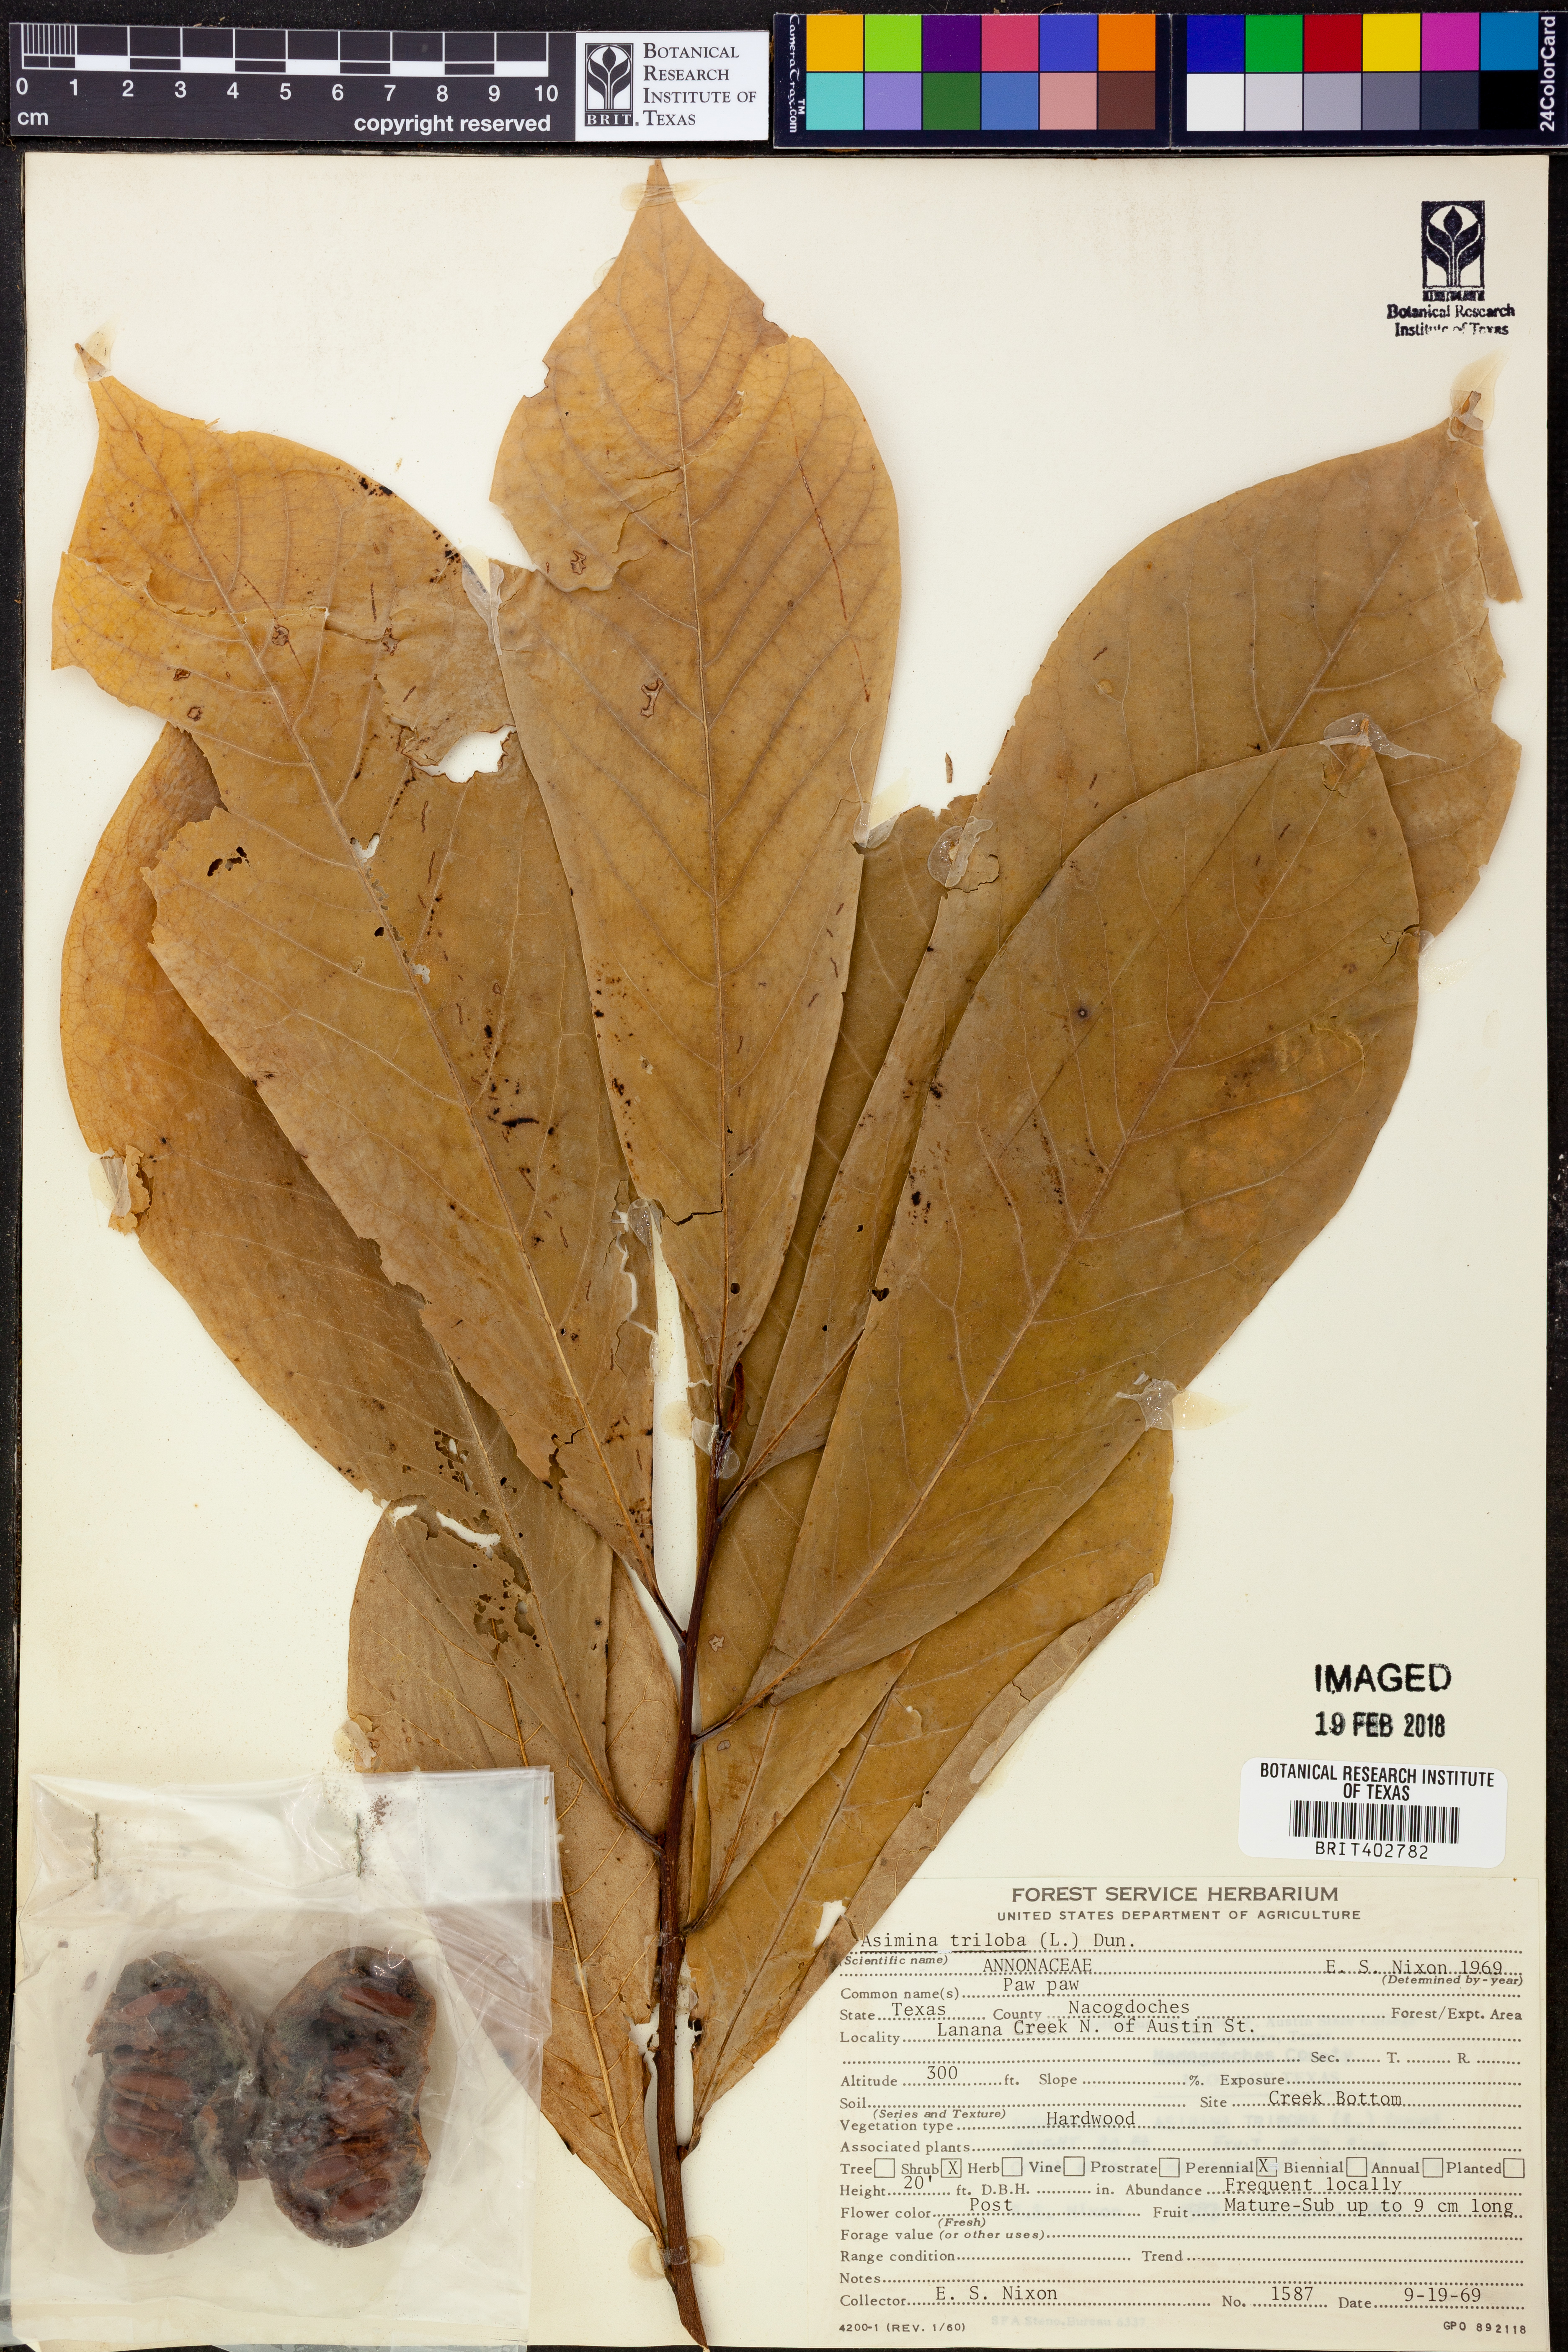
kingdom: Plantae
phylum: Tracheophyta
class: Magnoliopsida
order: Magnoliales
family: Annonaceae
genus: Asimina
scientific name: Asimina triloba
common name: Dog-banana
